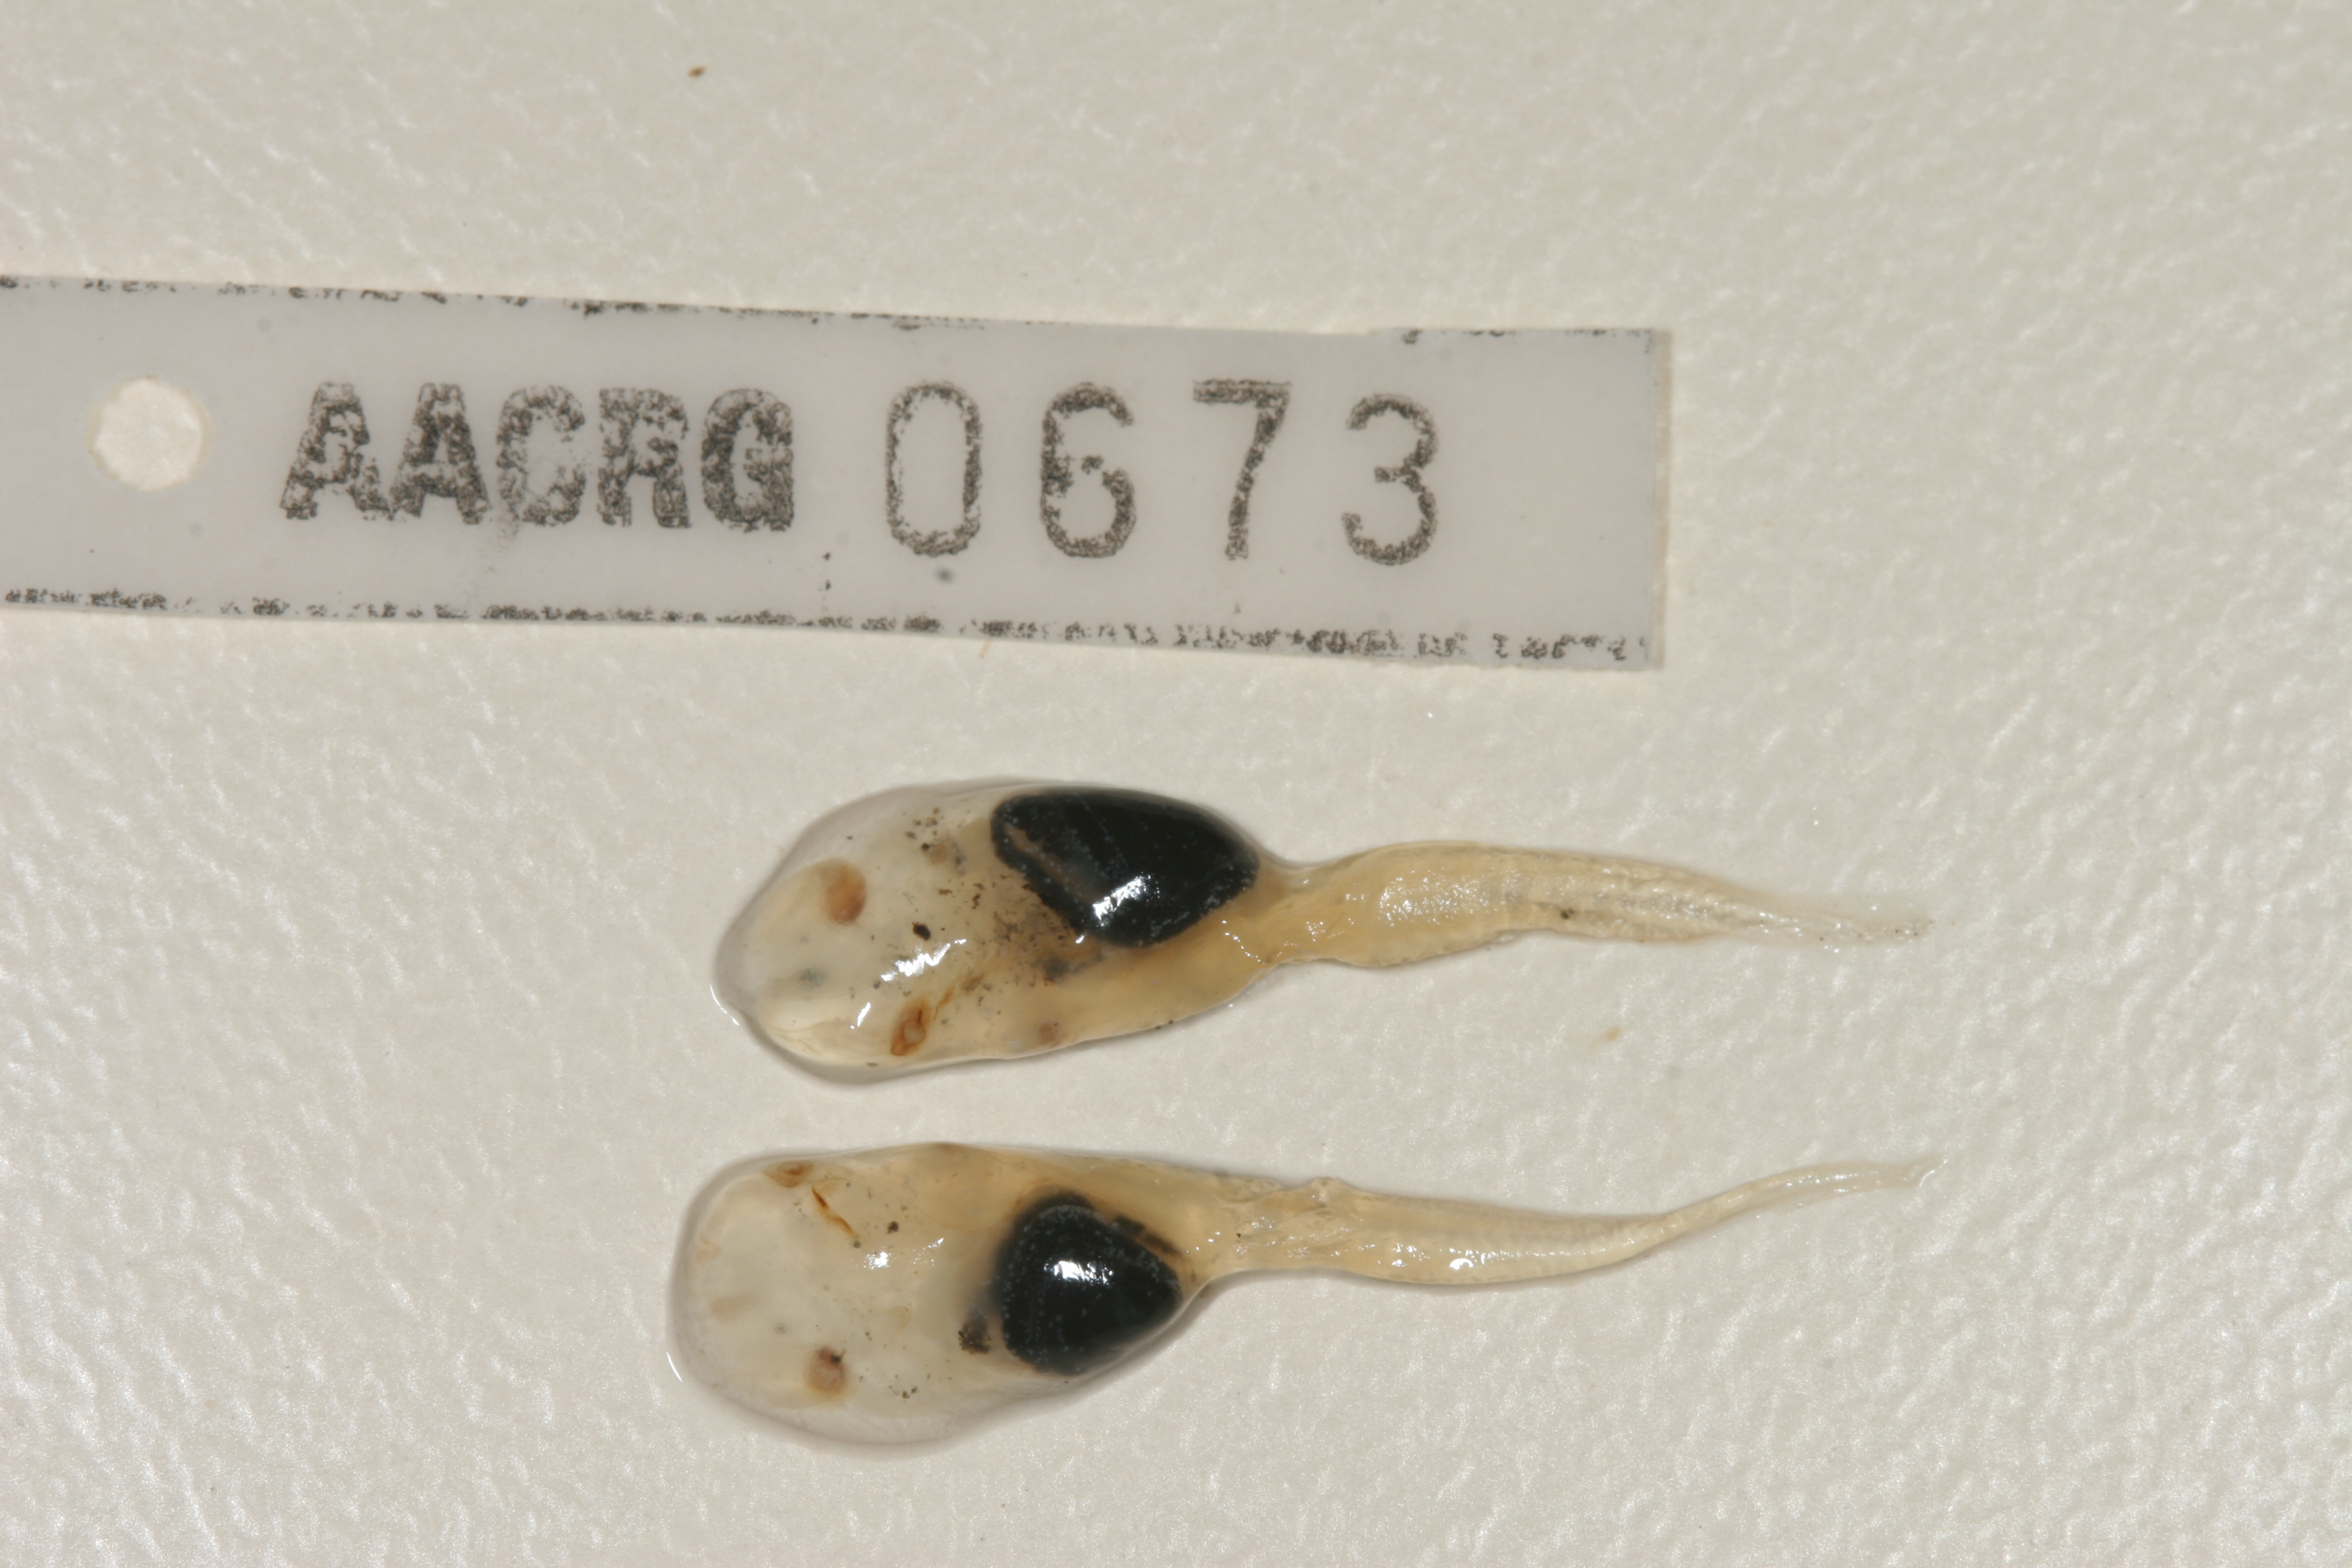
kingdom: Animalia
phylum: Chordata
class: Amphibia
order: Anura
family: Pipidae
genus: Xenopus
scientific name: Xenopus gilli
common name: Gill's platanna
